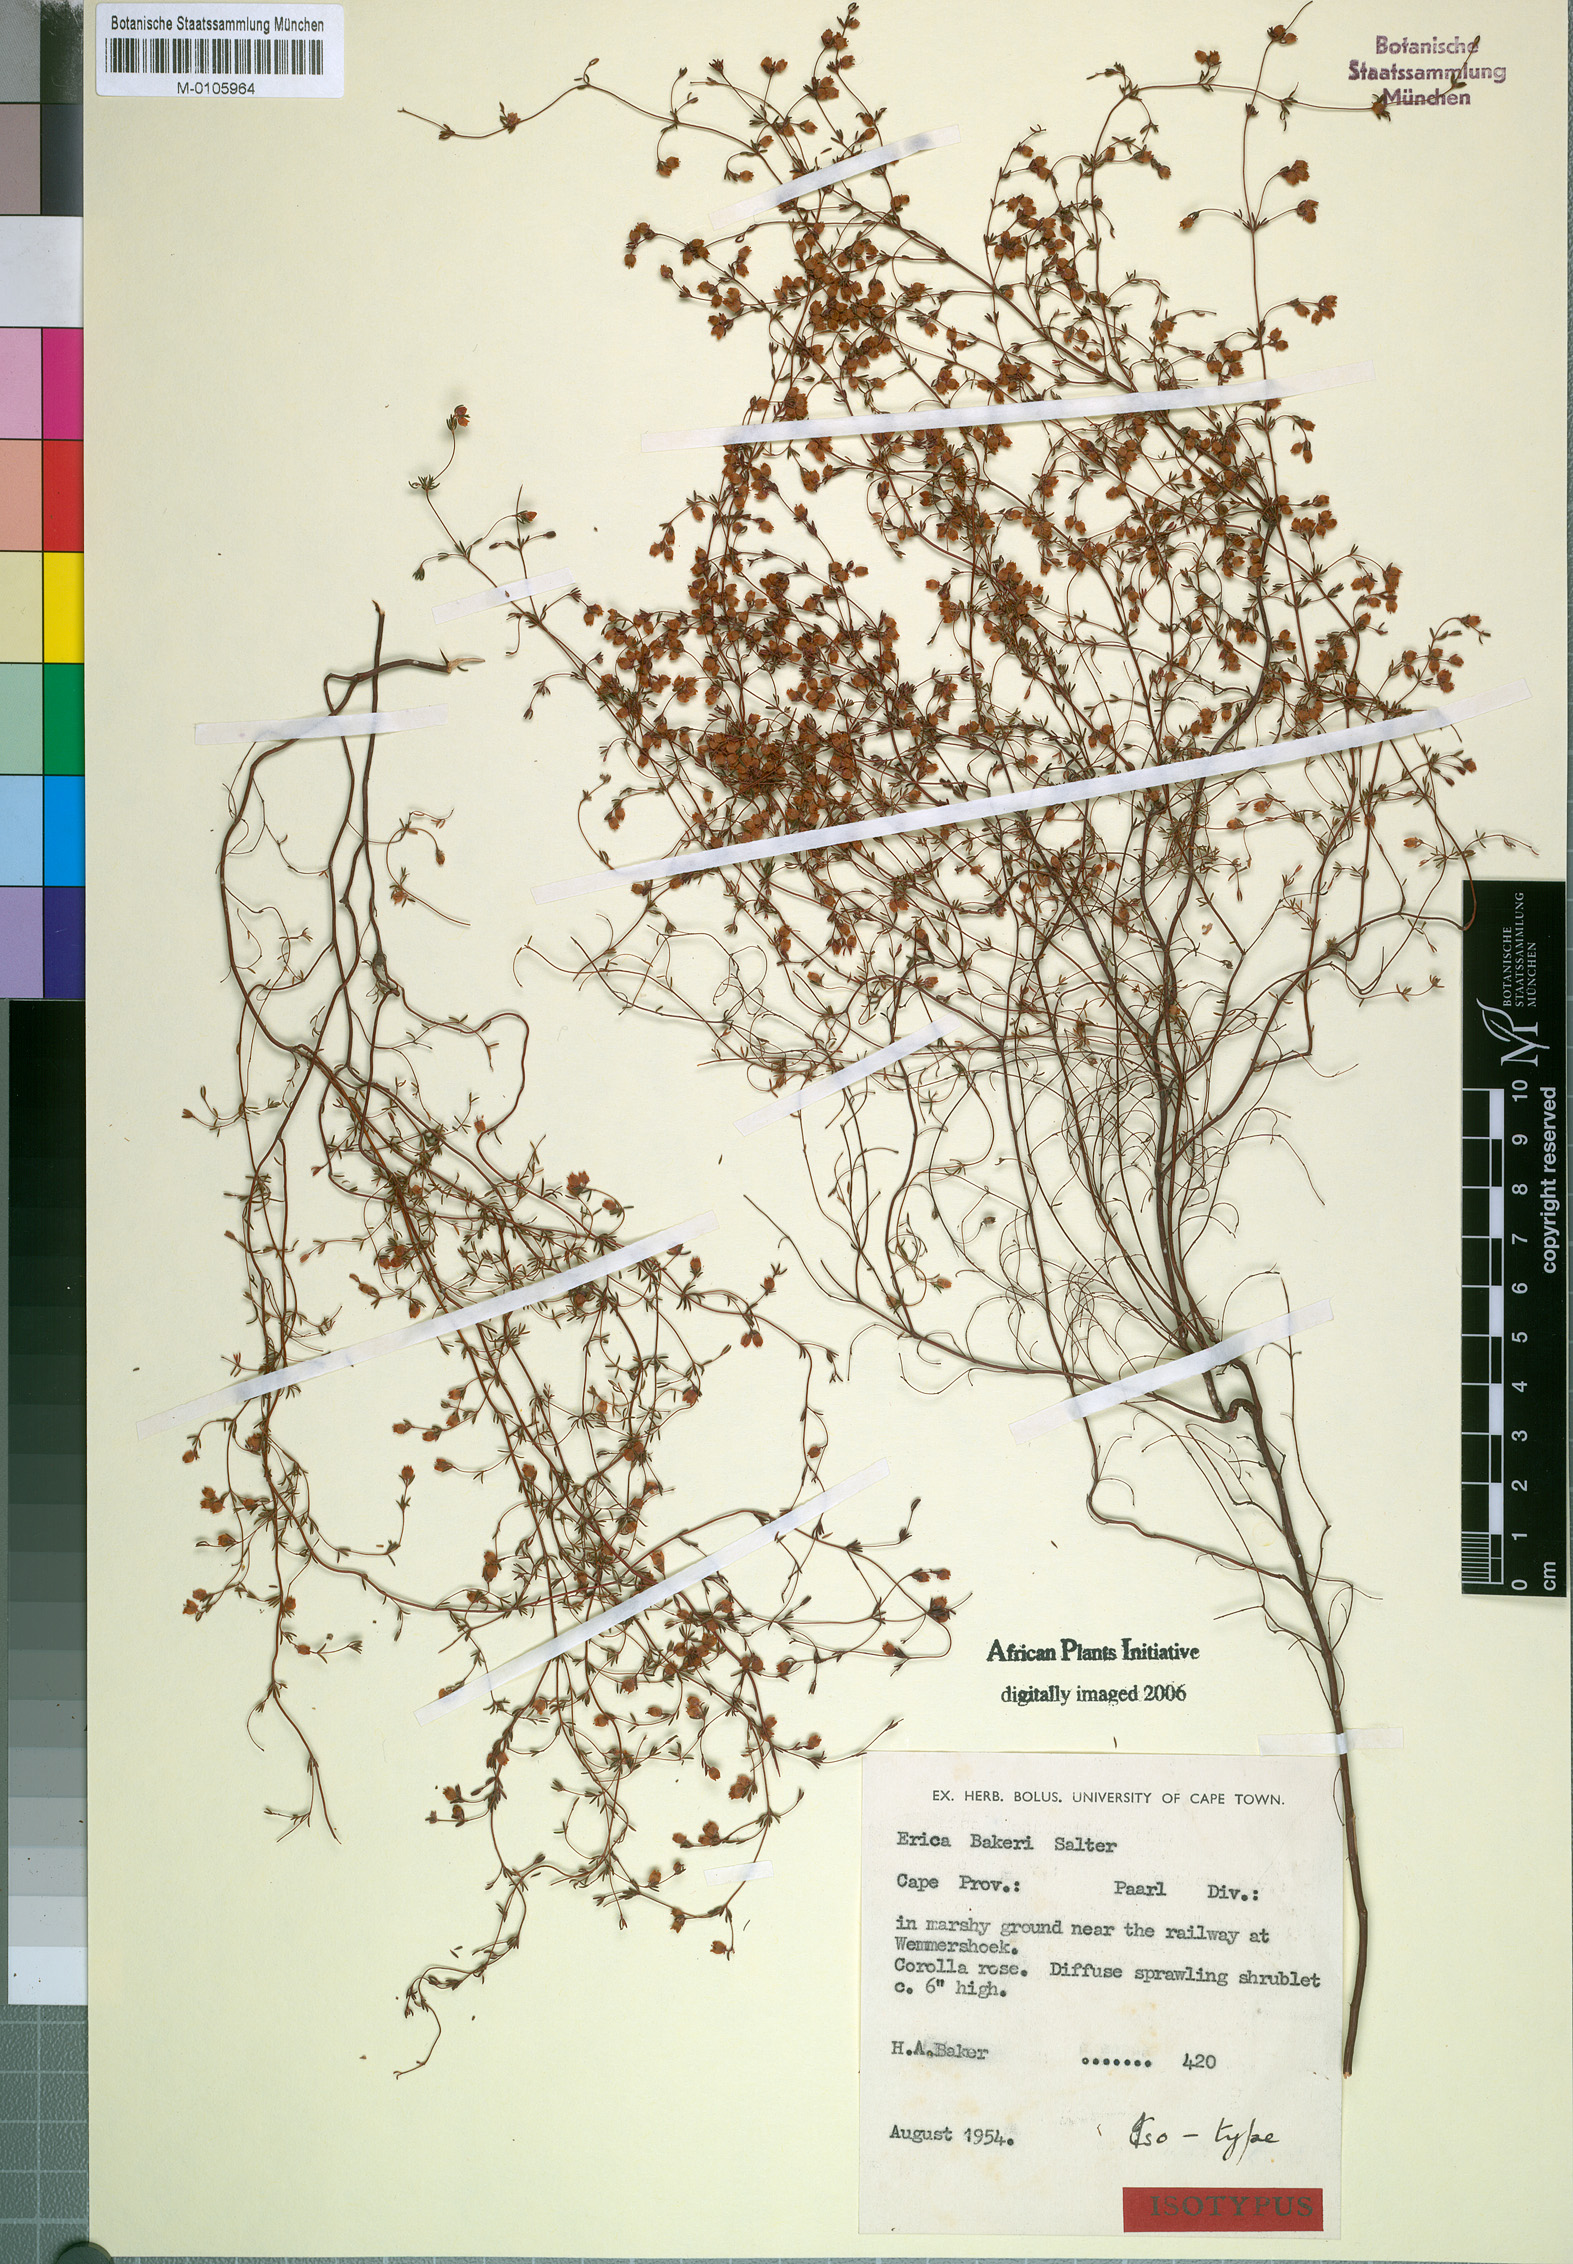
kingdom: Plantae
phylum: Tracheophyta
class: Magnoliopsida
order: Ericales
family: Ericaceae
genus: Erica
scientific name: Erica bakeri
